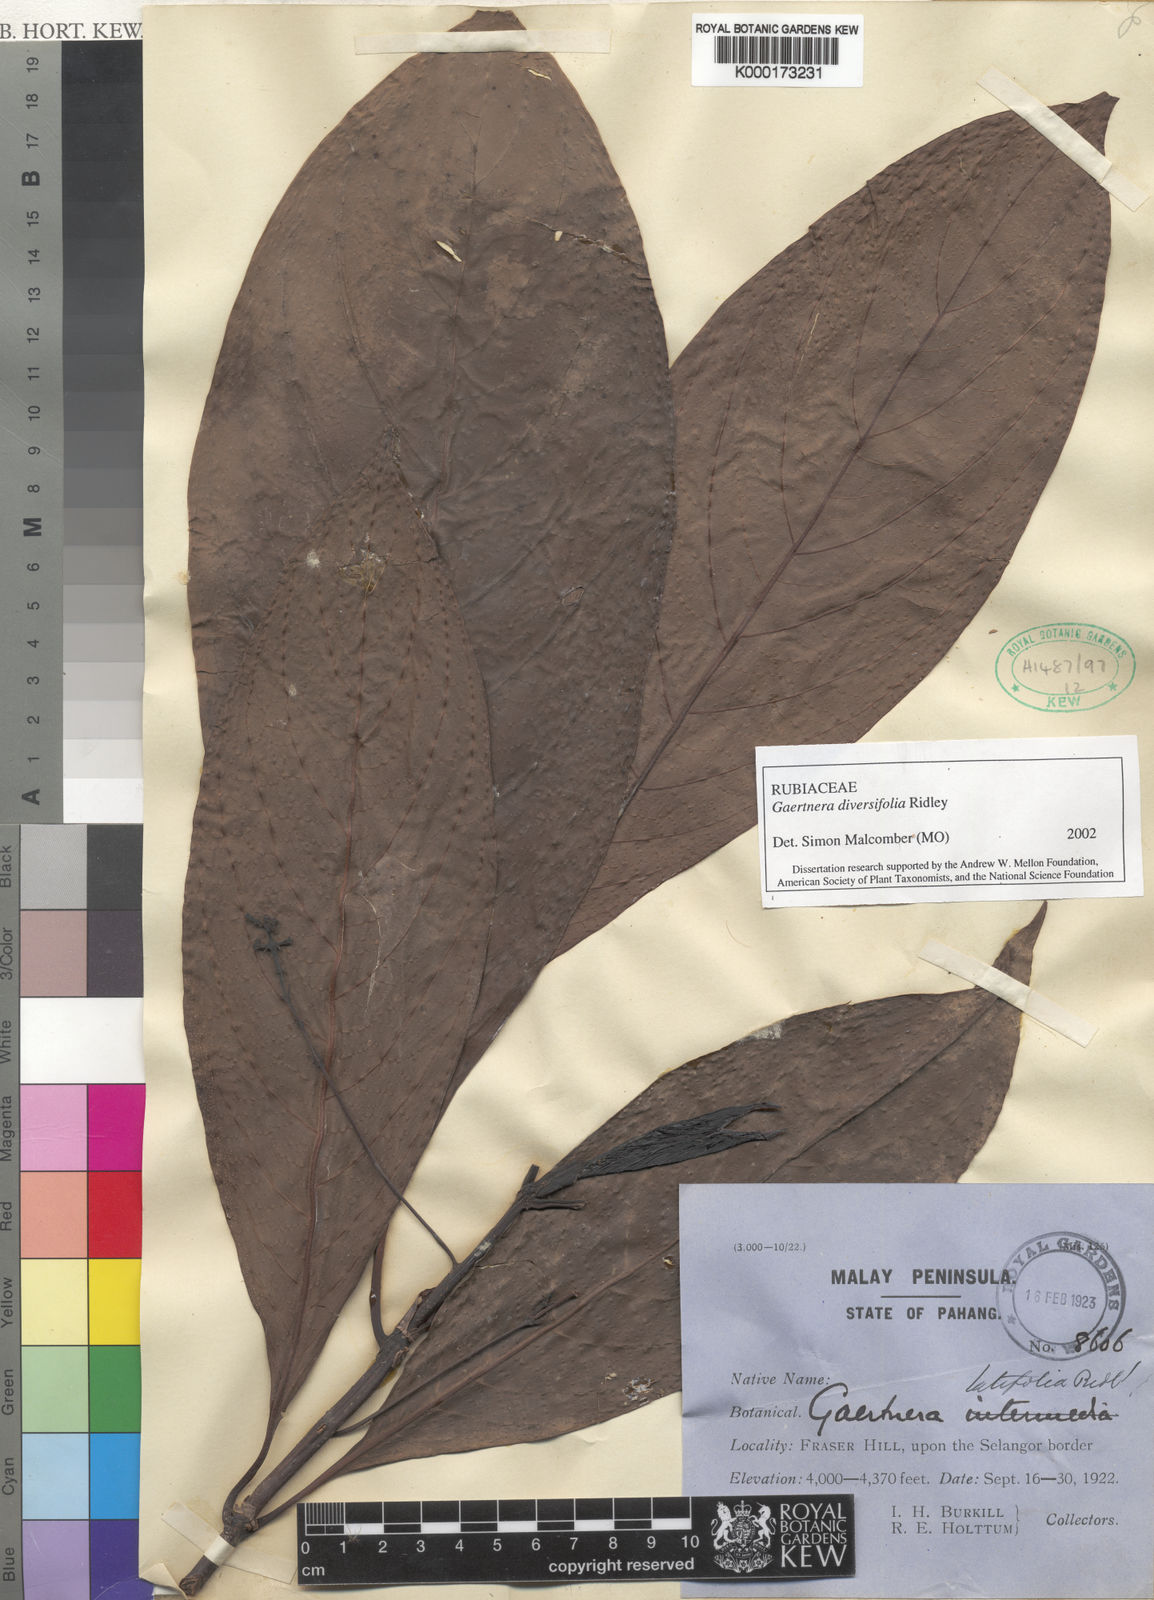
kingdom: Plantae
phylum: Tracheophyta
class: Magnoliopsida
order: Gentianales
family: Rubiaceae
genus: Gaertnera
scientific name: Gaertnera diversifolia
